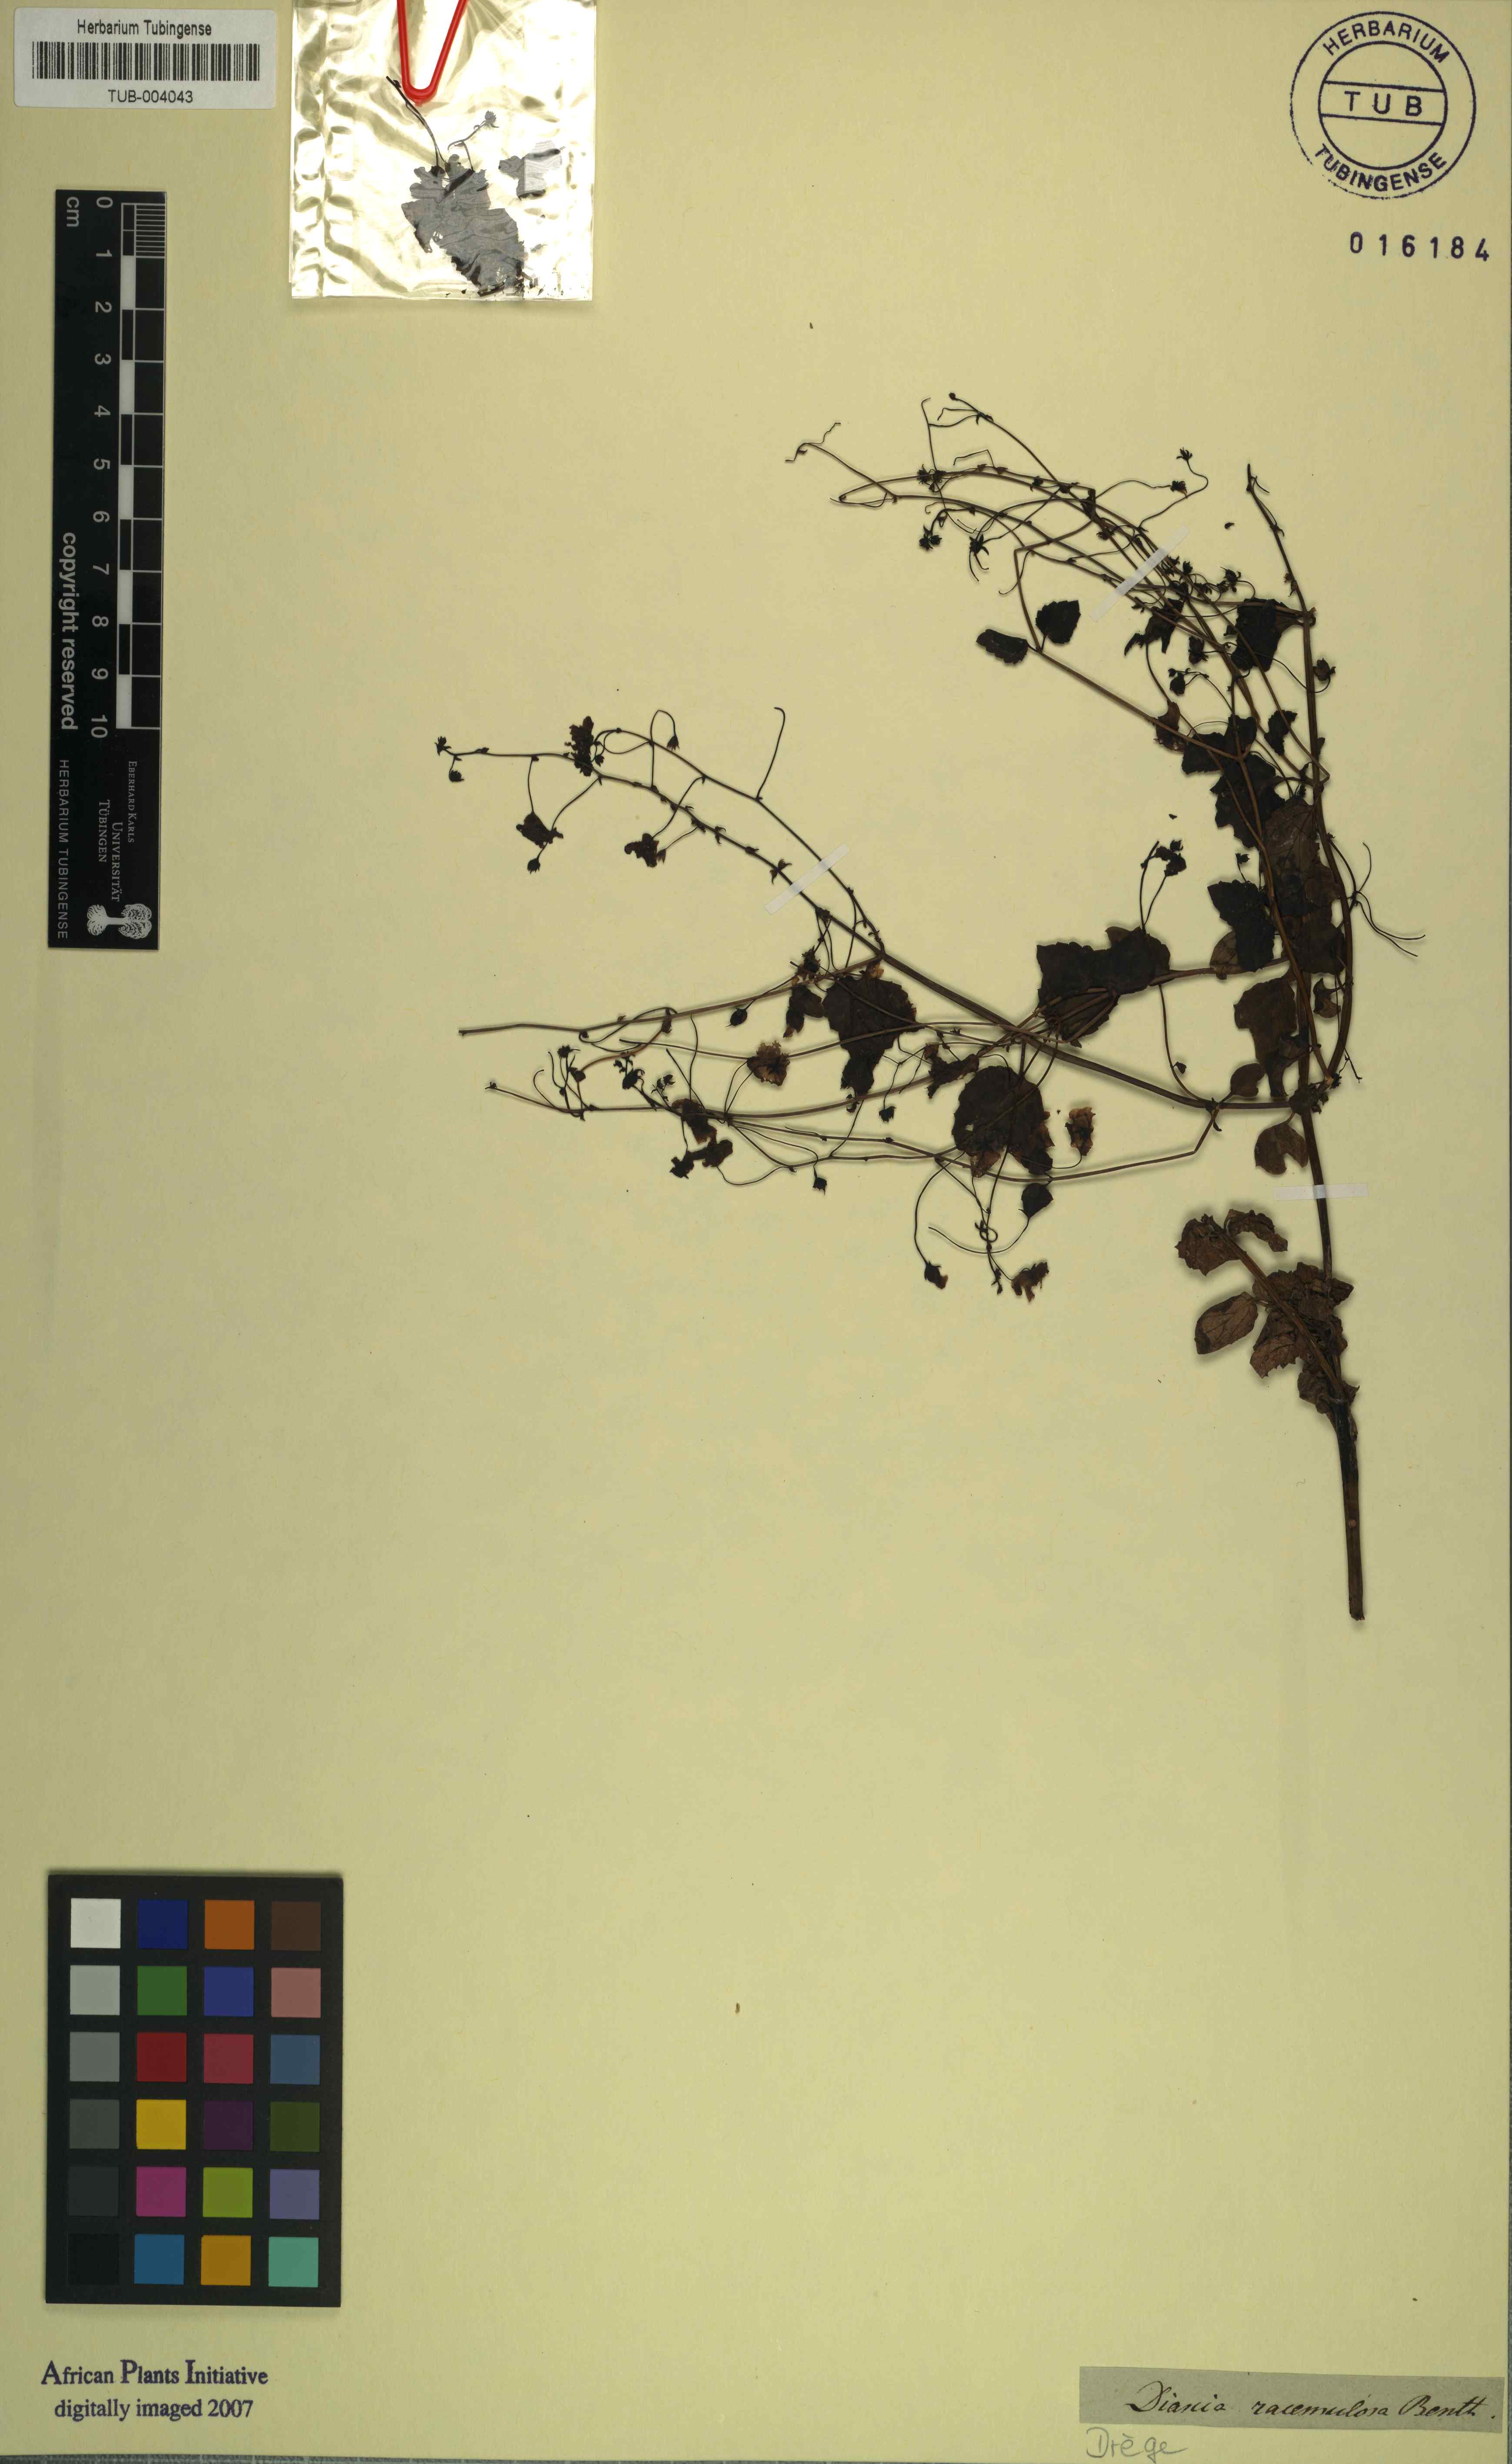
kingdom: Plantae
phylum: Tracheophyta
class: Magnoliopsida
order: Lamiales
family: Scrophulariaceae
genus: Diascia
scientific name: Diascia racemulosa
